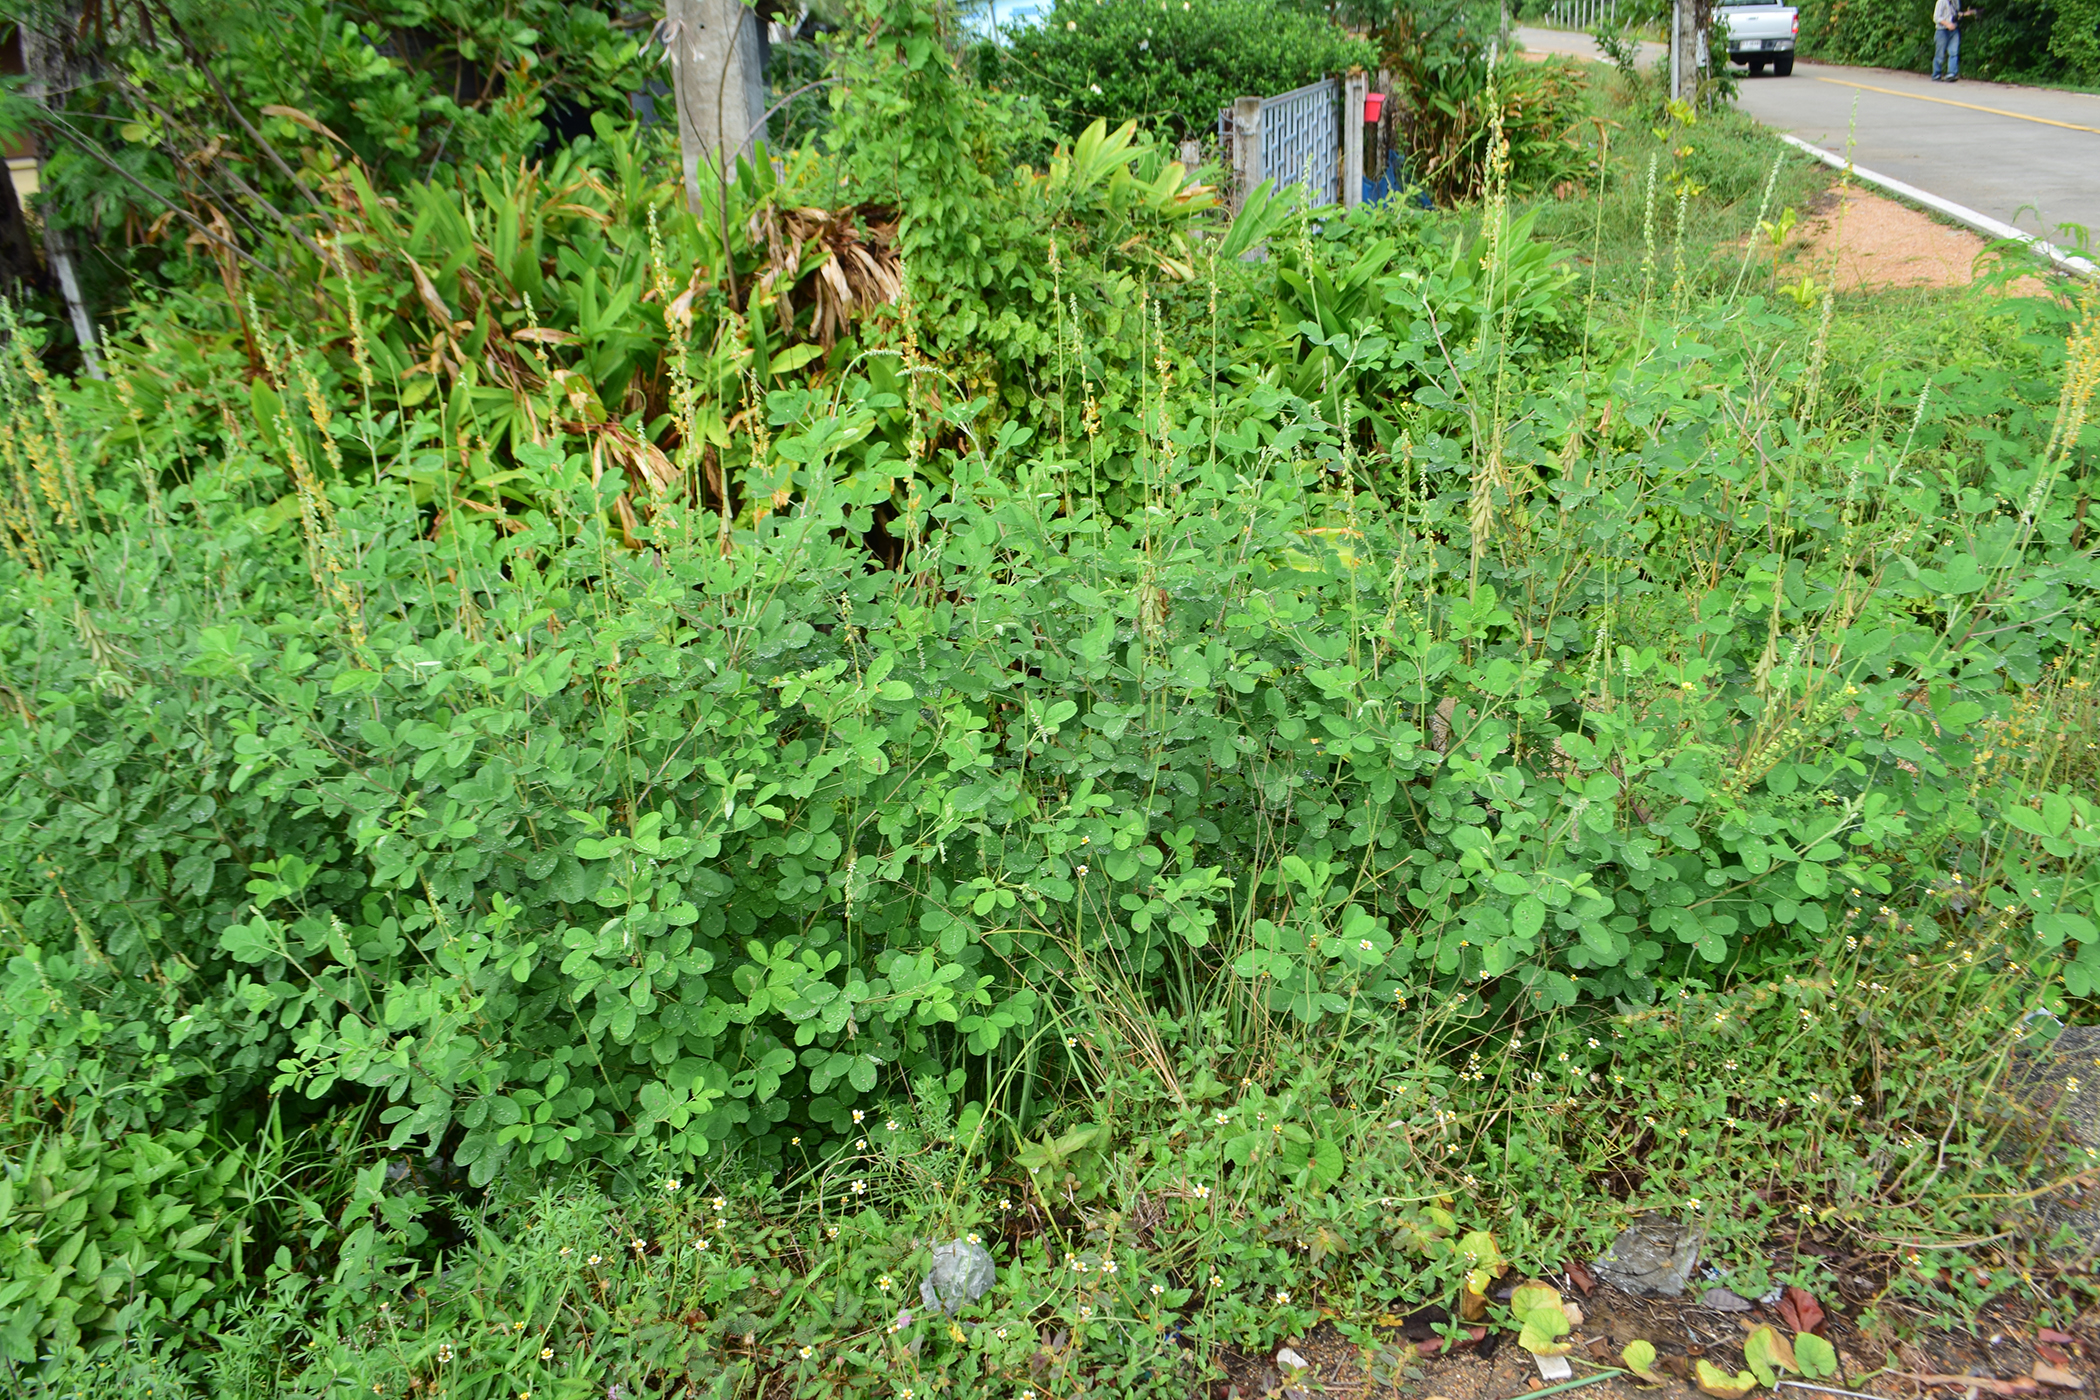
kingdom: Plantae
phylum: Tracheophyta
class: Magnoliopsida
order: Fabales
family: Fabaceae
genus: Crotalaria
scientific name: Crotalaria pallida
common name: Smooth rattlebox
